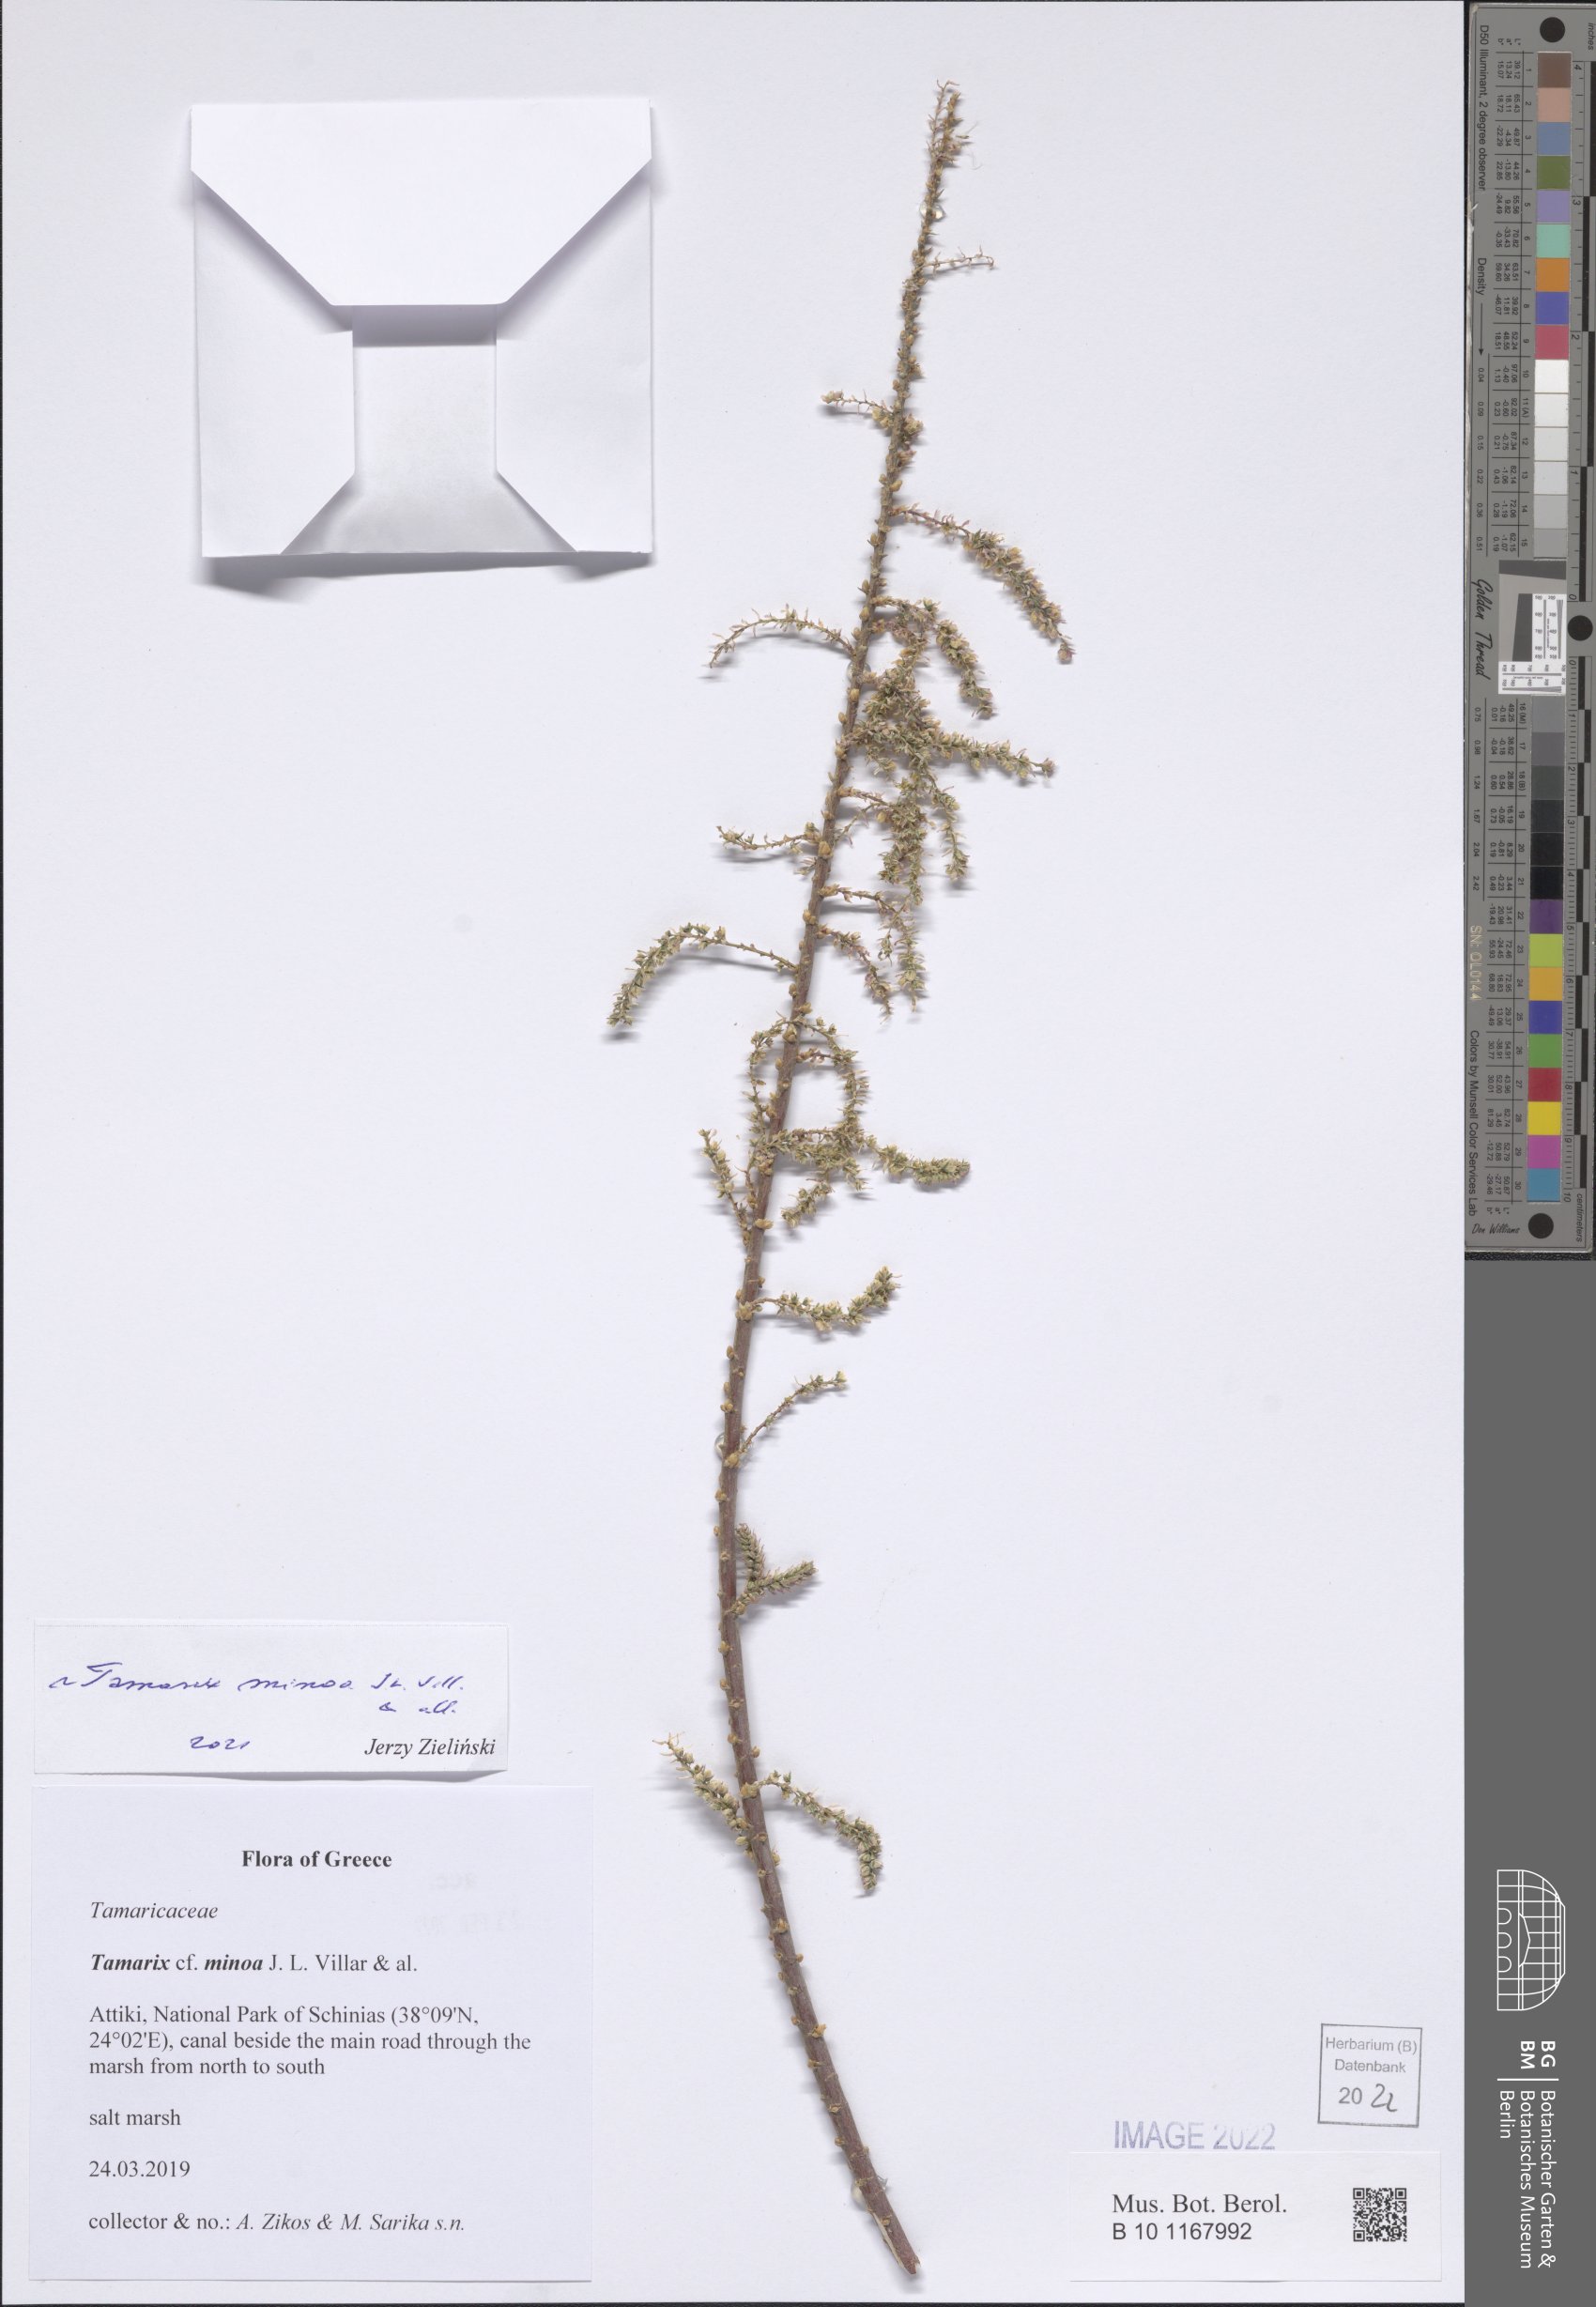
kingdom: Plantae
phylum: Tracheophyta
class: Magnoliopsida
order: Caryophyllales
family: Tamaricaceae
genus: Tamarix
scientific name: Tamarix minoa
